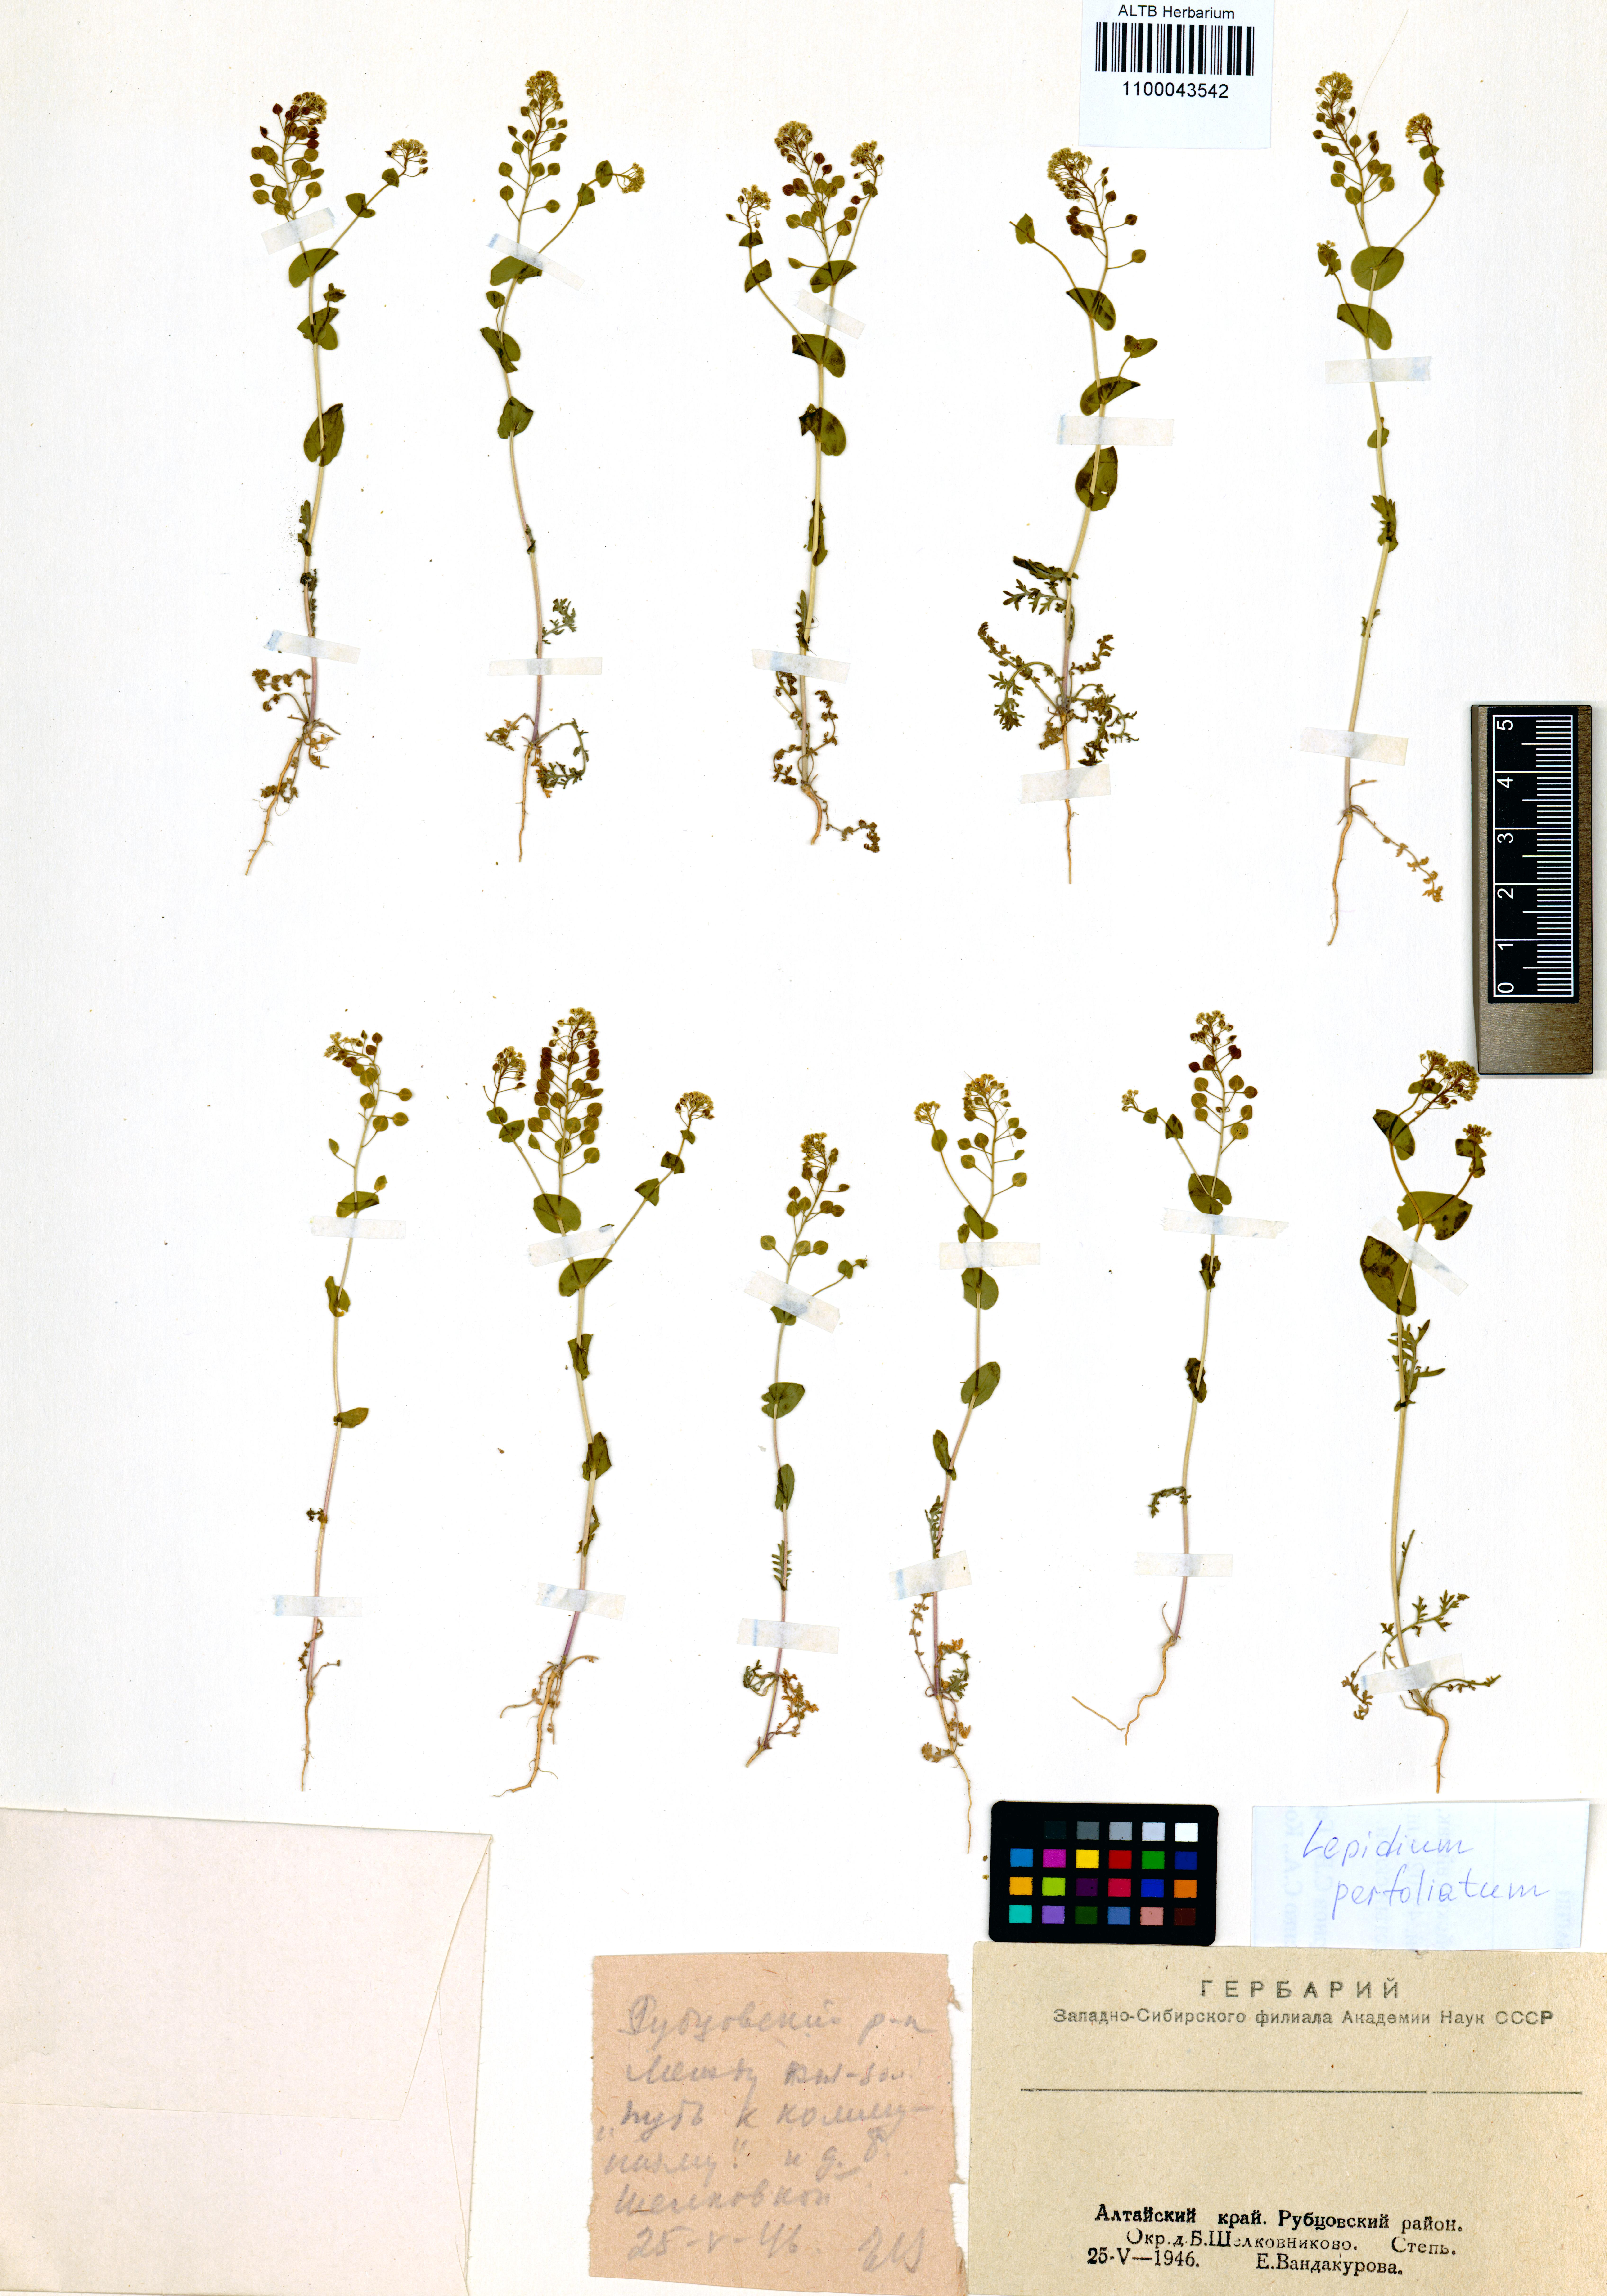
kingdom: Plantae
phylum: Tracheophyta
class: Magnoliopsida
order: Brassicales
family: Brassicaceae
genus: Lepidium
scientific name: Lepidium perfoliatum
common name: Perfoliate pepperwort
